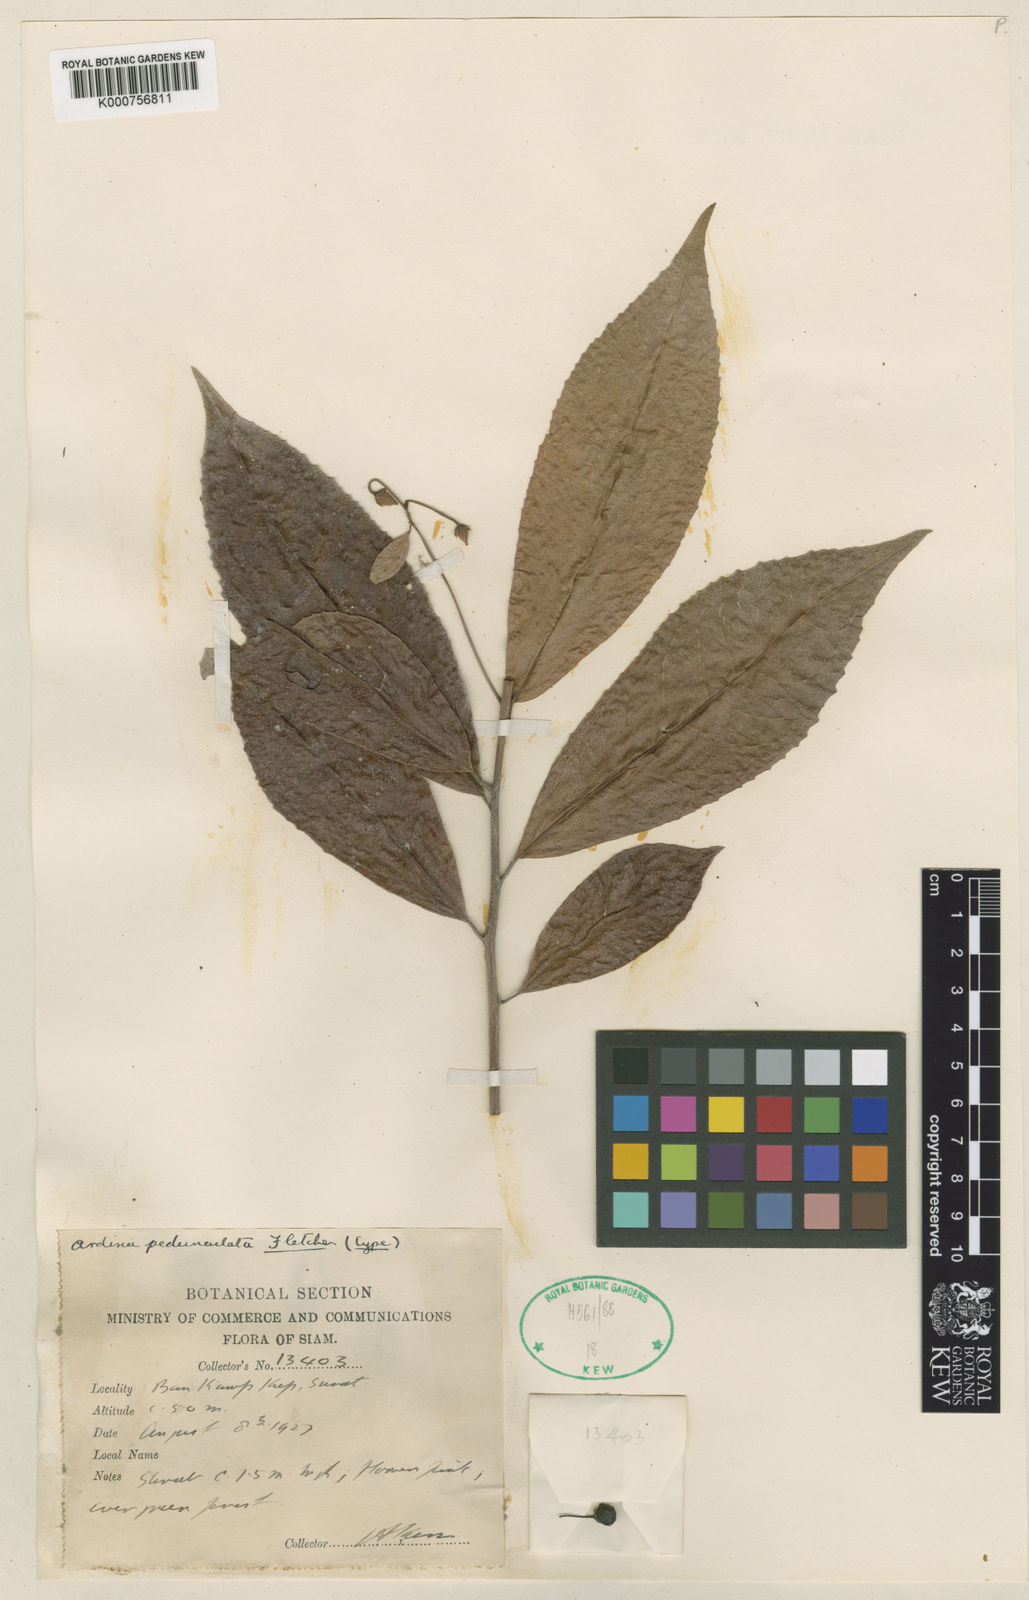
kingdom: Plantae
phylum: Tracheophyta
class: Magnoliopsida
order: Ericales
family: Primulaceae
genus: Ardisia
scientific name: Ardisia pedunculata
